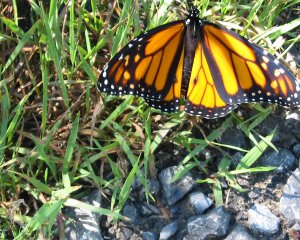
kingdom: Animalia
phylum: Arthropoda
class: Insecta
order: Lepidoptera
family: Nymphalidae
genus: Danaus
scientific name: Danaus plexippus
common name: Monarch
